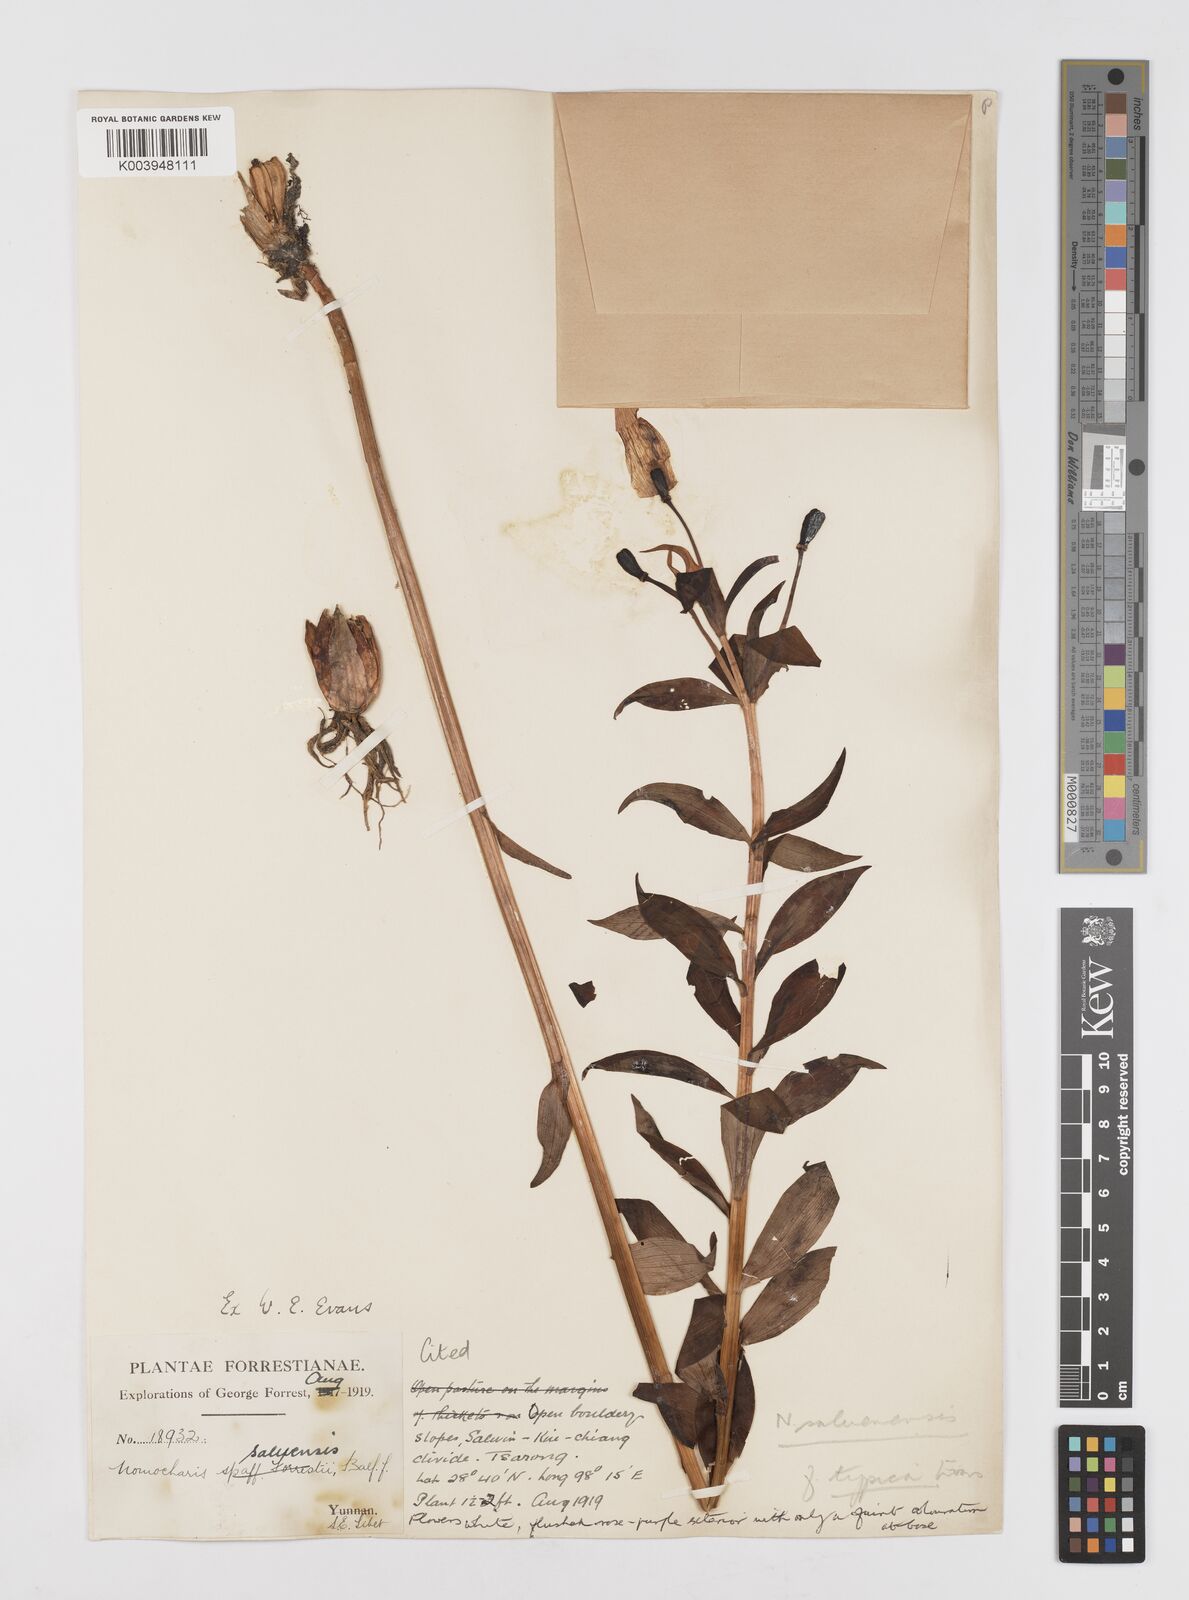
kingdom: Plantae
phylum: Tracheophyta
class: Liliopsida
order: Liliales
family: Liliaceae
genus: Lilium
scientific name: Lilium saluenense
